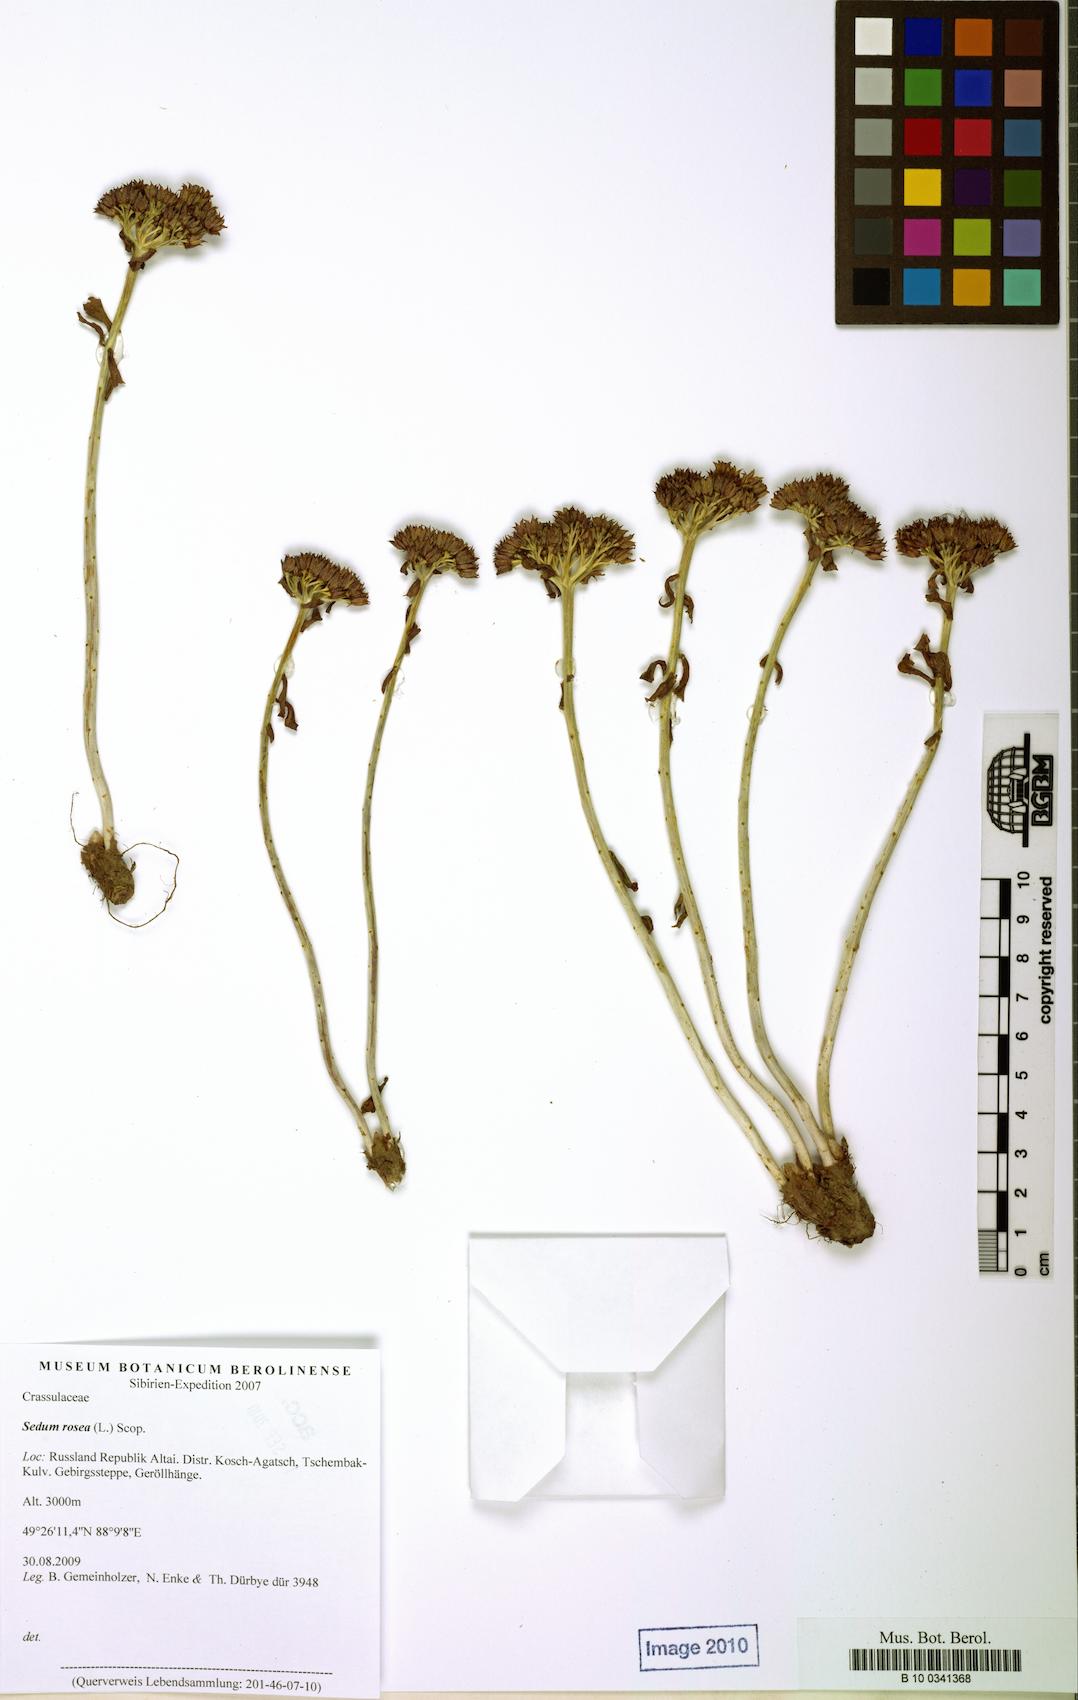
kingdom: Plantae
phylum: Tracheophyta
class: Magnoliopsida
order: Saxifragales
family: Crassulaceae
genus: Rhodiola
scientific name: Rhodiola rosea
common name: Roseroot
